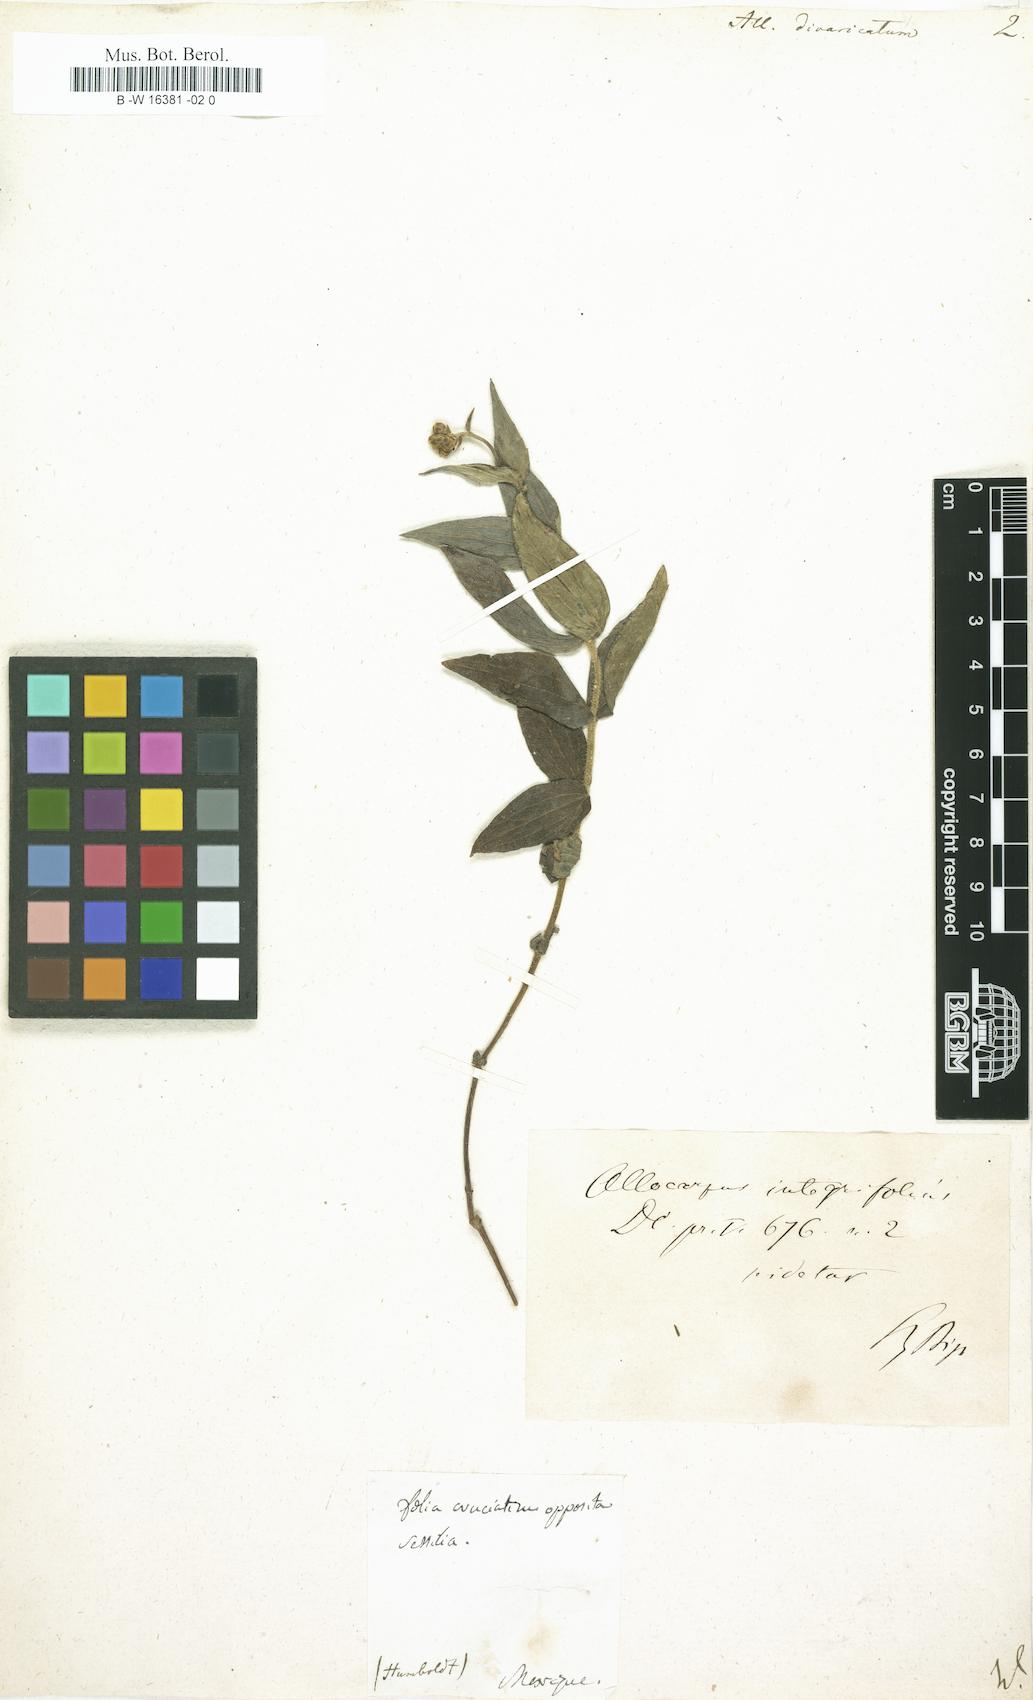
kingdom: Plantae
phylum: Tracheophyta
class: Magnoliopsida
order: Asterales
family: Asteraceae
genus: Alloispermum
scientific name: Alloispermum caracasanum
